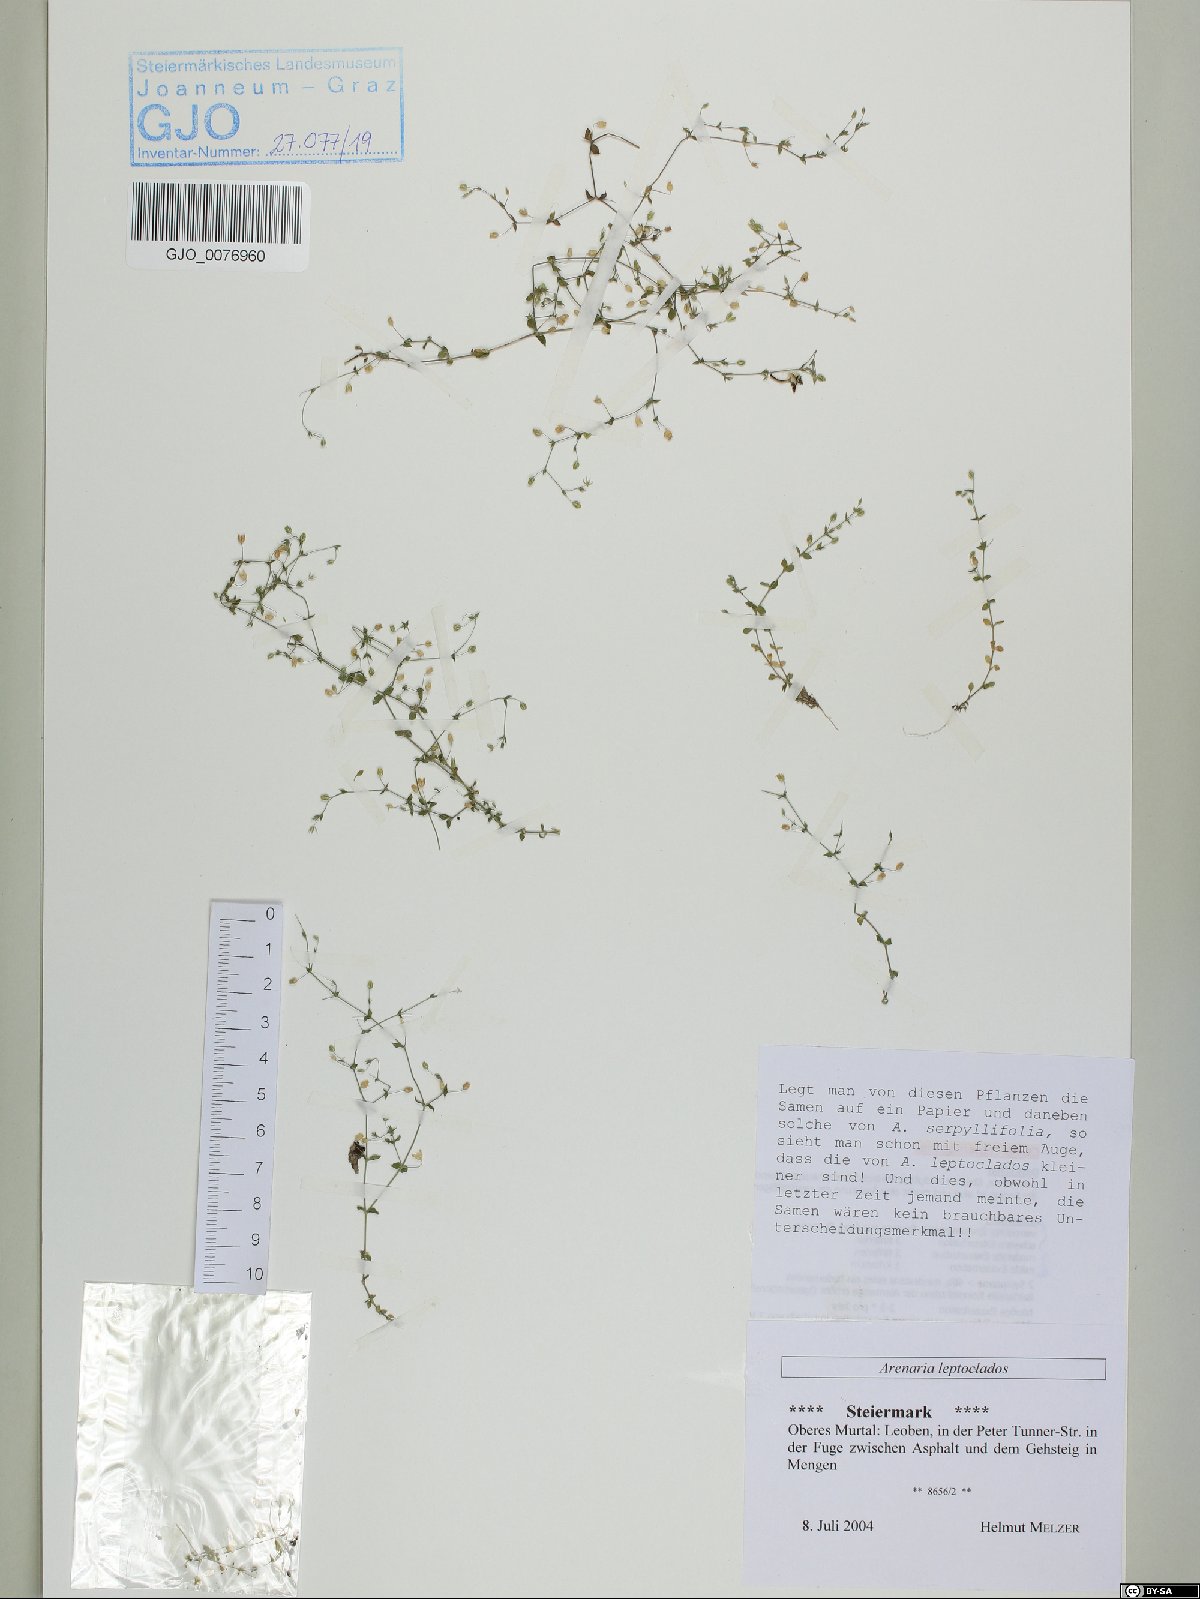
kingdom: Plantae
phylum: Tracheophyta
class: Magnoliopsida
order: Caryophyllales
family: Caryophyllaceae
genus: Arenaria
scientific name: Arenaria leptoclados
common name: Thyme-leaved sandwort
